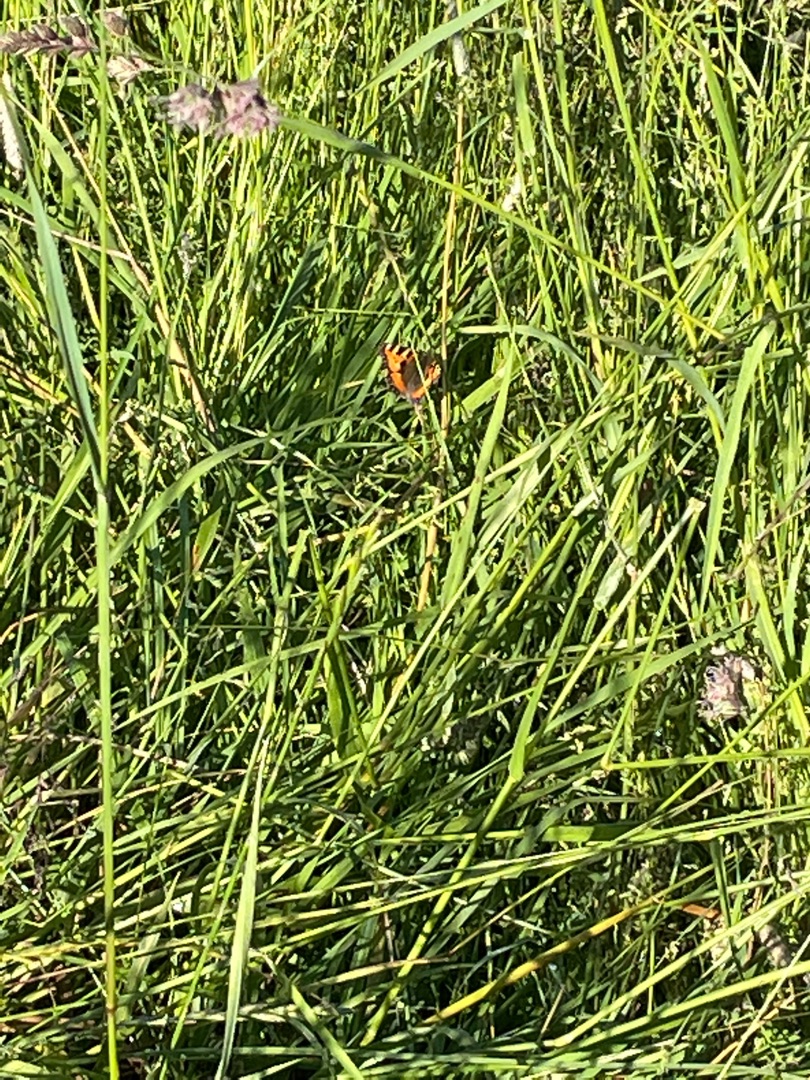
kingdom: Animalia
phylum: Arthropoda
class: Insecta
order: Lepidoptera
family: Nymphalidae
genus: Aglais
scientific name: Aglais urticae
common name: Nældens takvinge
